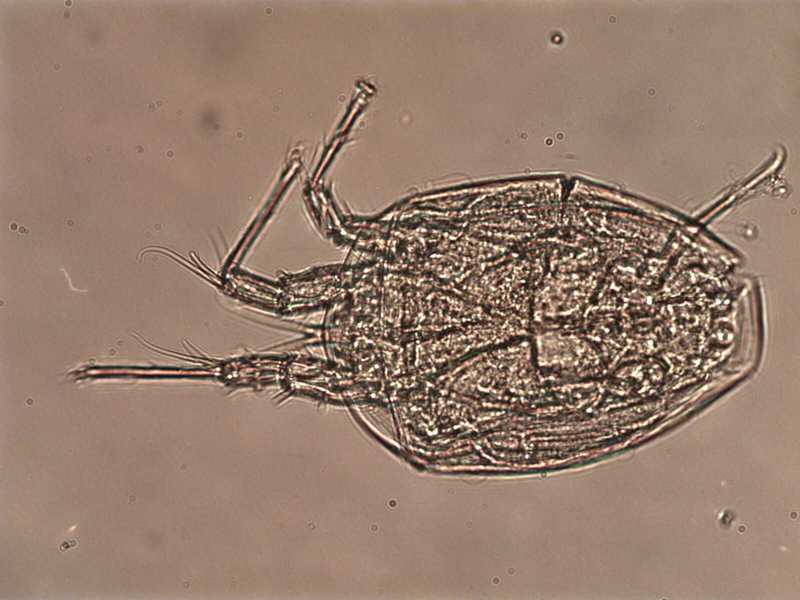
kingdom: Animalia
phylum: Arthropoda
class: Arachnida
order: Sarcoptiformes
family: Histiostomatidae
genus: Histiostoma
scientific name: Histiostoma prodectoris
